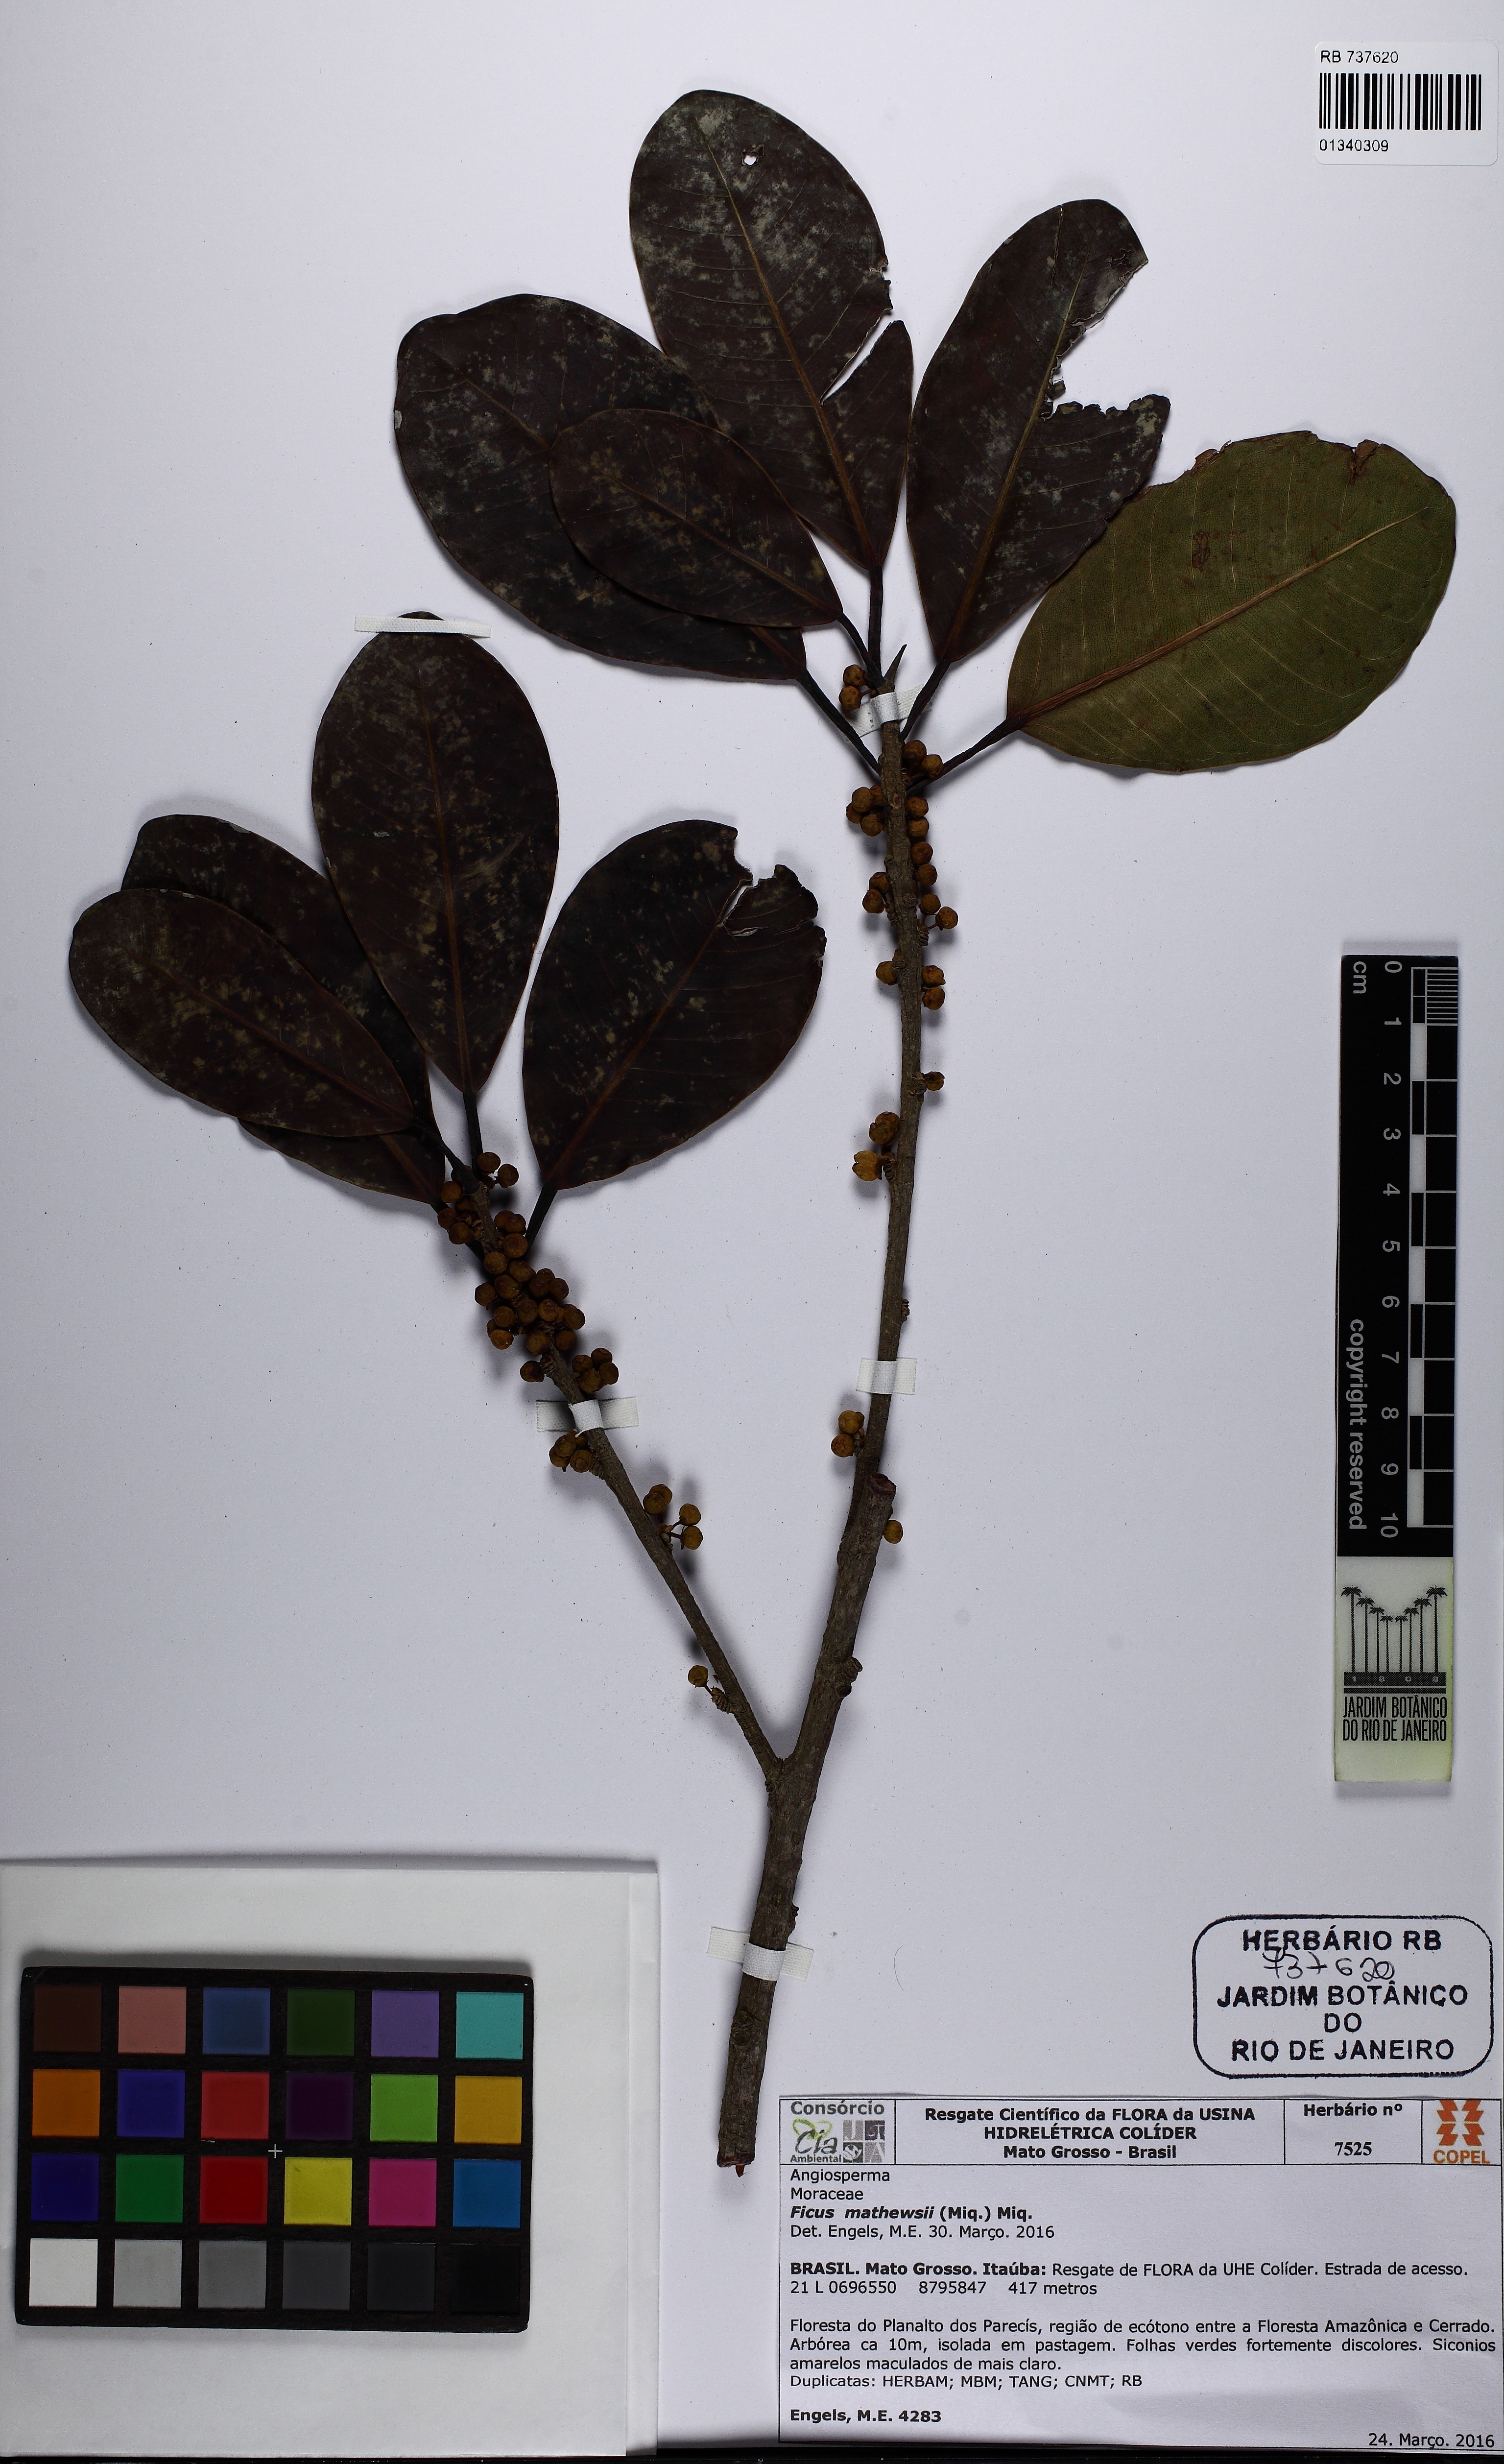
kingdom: Plantae
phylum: Tracheophyta
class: Magnoliopsida
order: Rosales
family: Moraceae
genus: Ficus
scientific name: Ficus mathewsii
